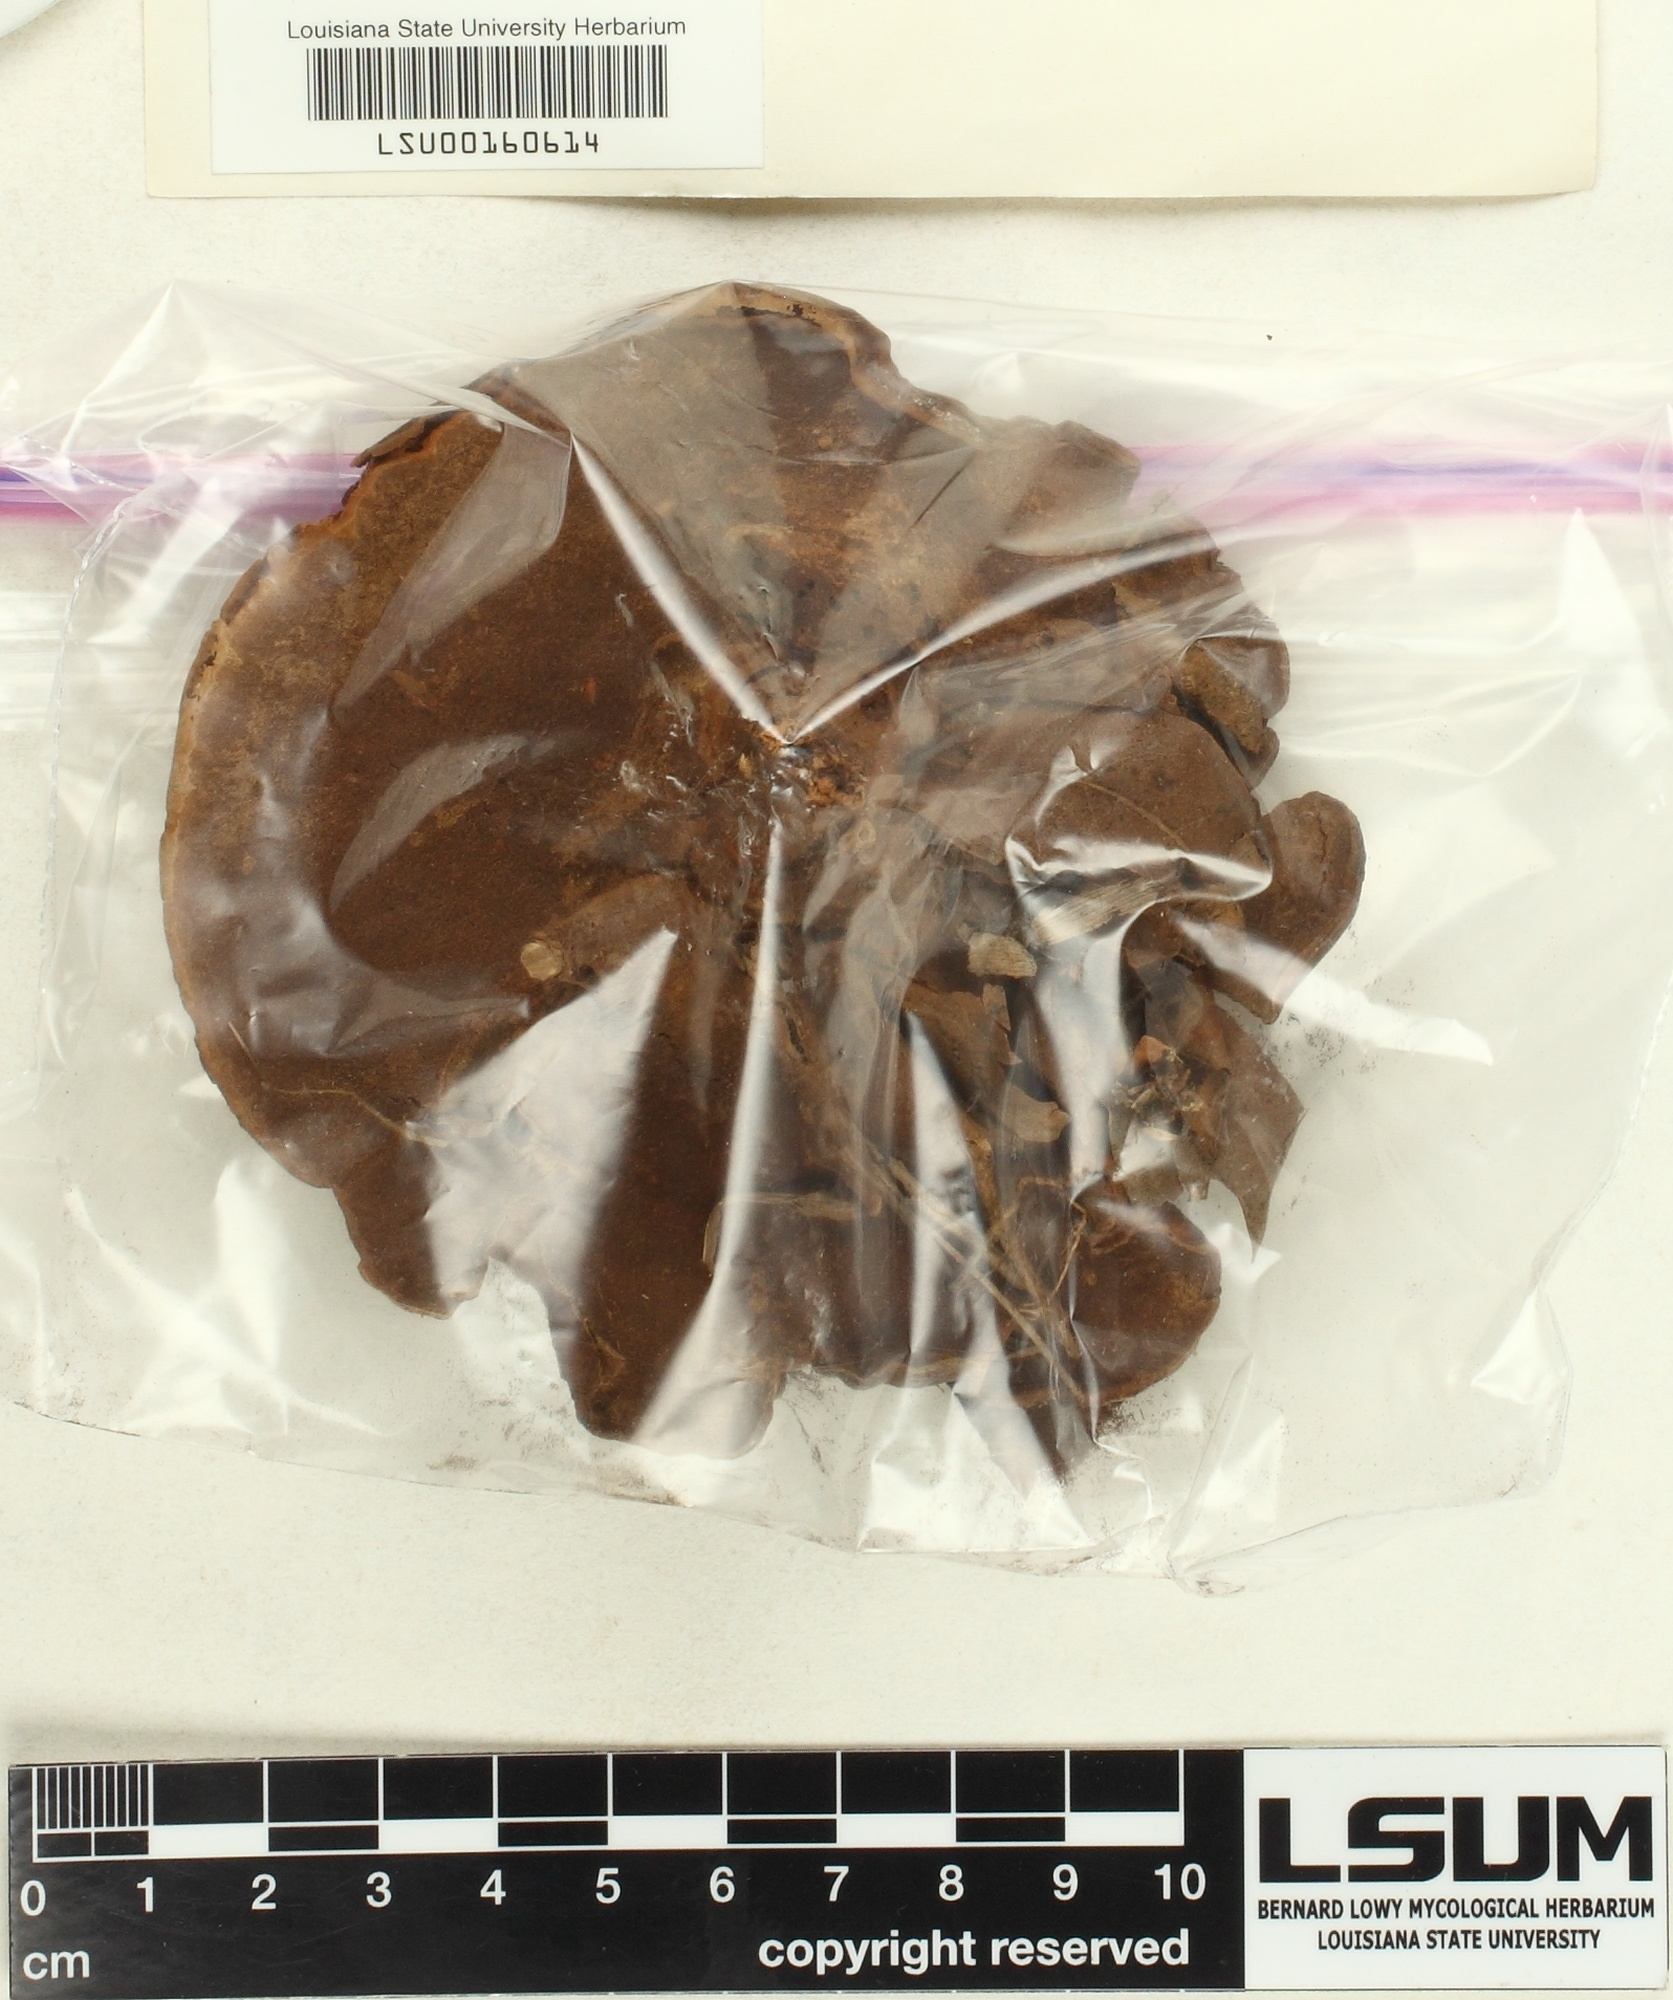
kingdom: Fungi
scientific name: Fungi
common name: Fungi
